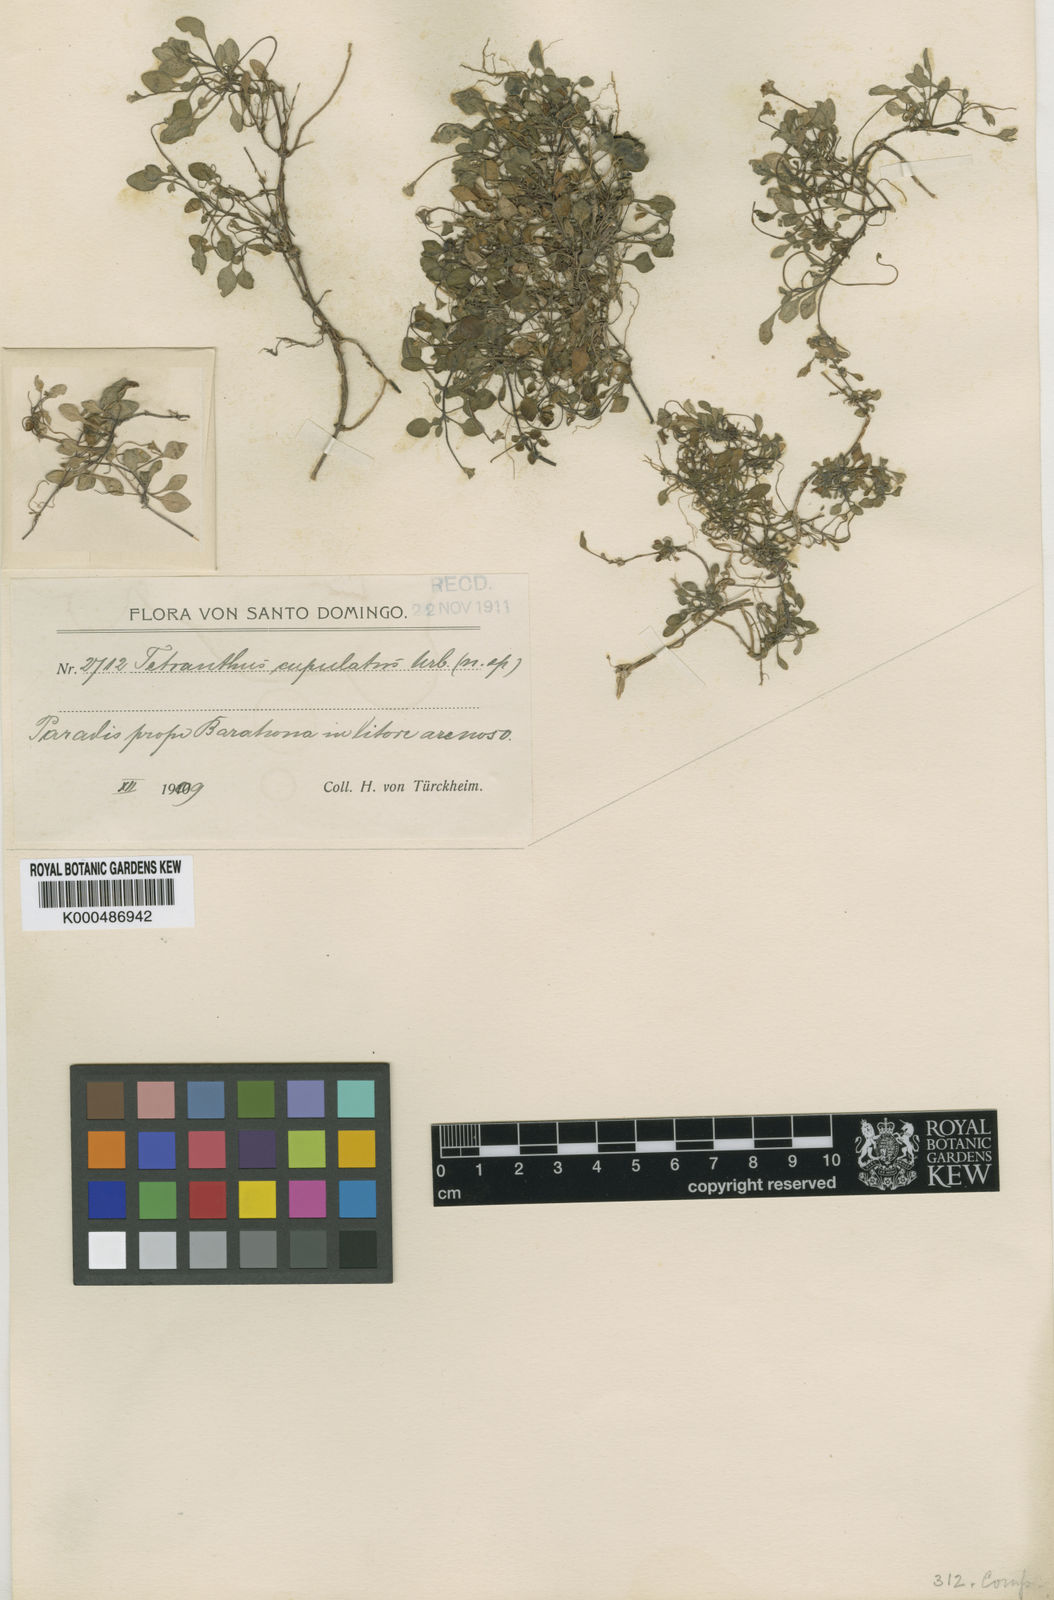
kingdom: Plantae
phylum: Tracheophyta
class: Magnoliopsida
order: Asterales
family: Asteraceae
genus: Tetranthus
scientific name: Tetranthus cupulatus
